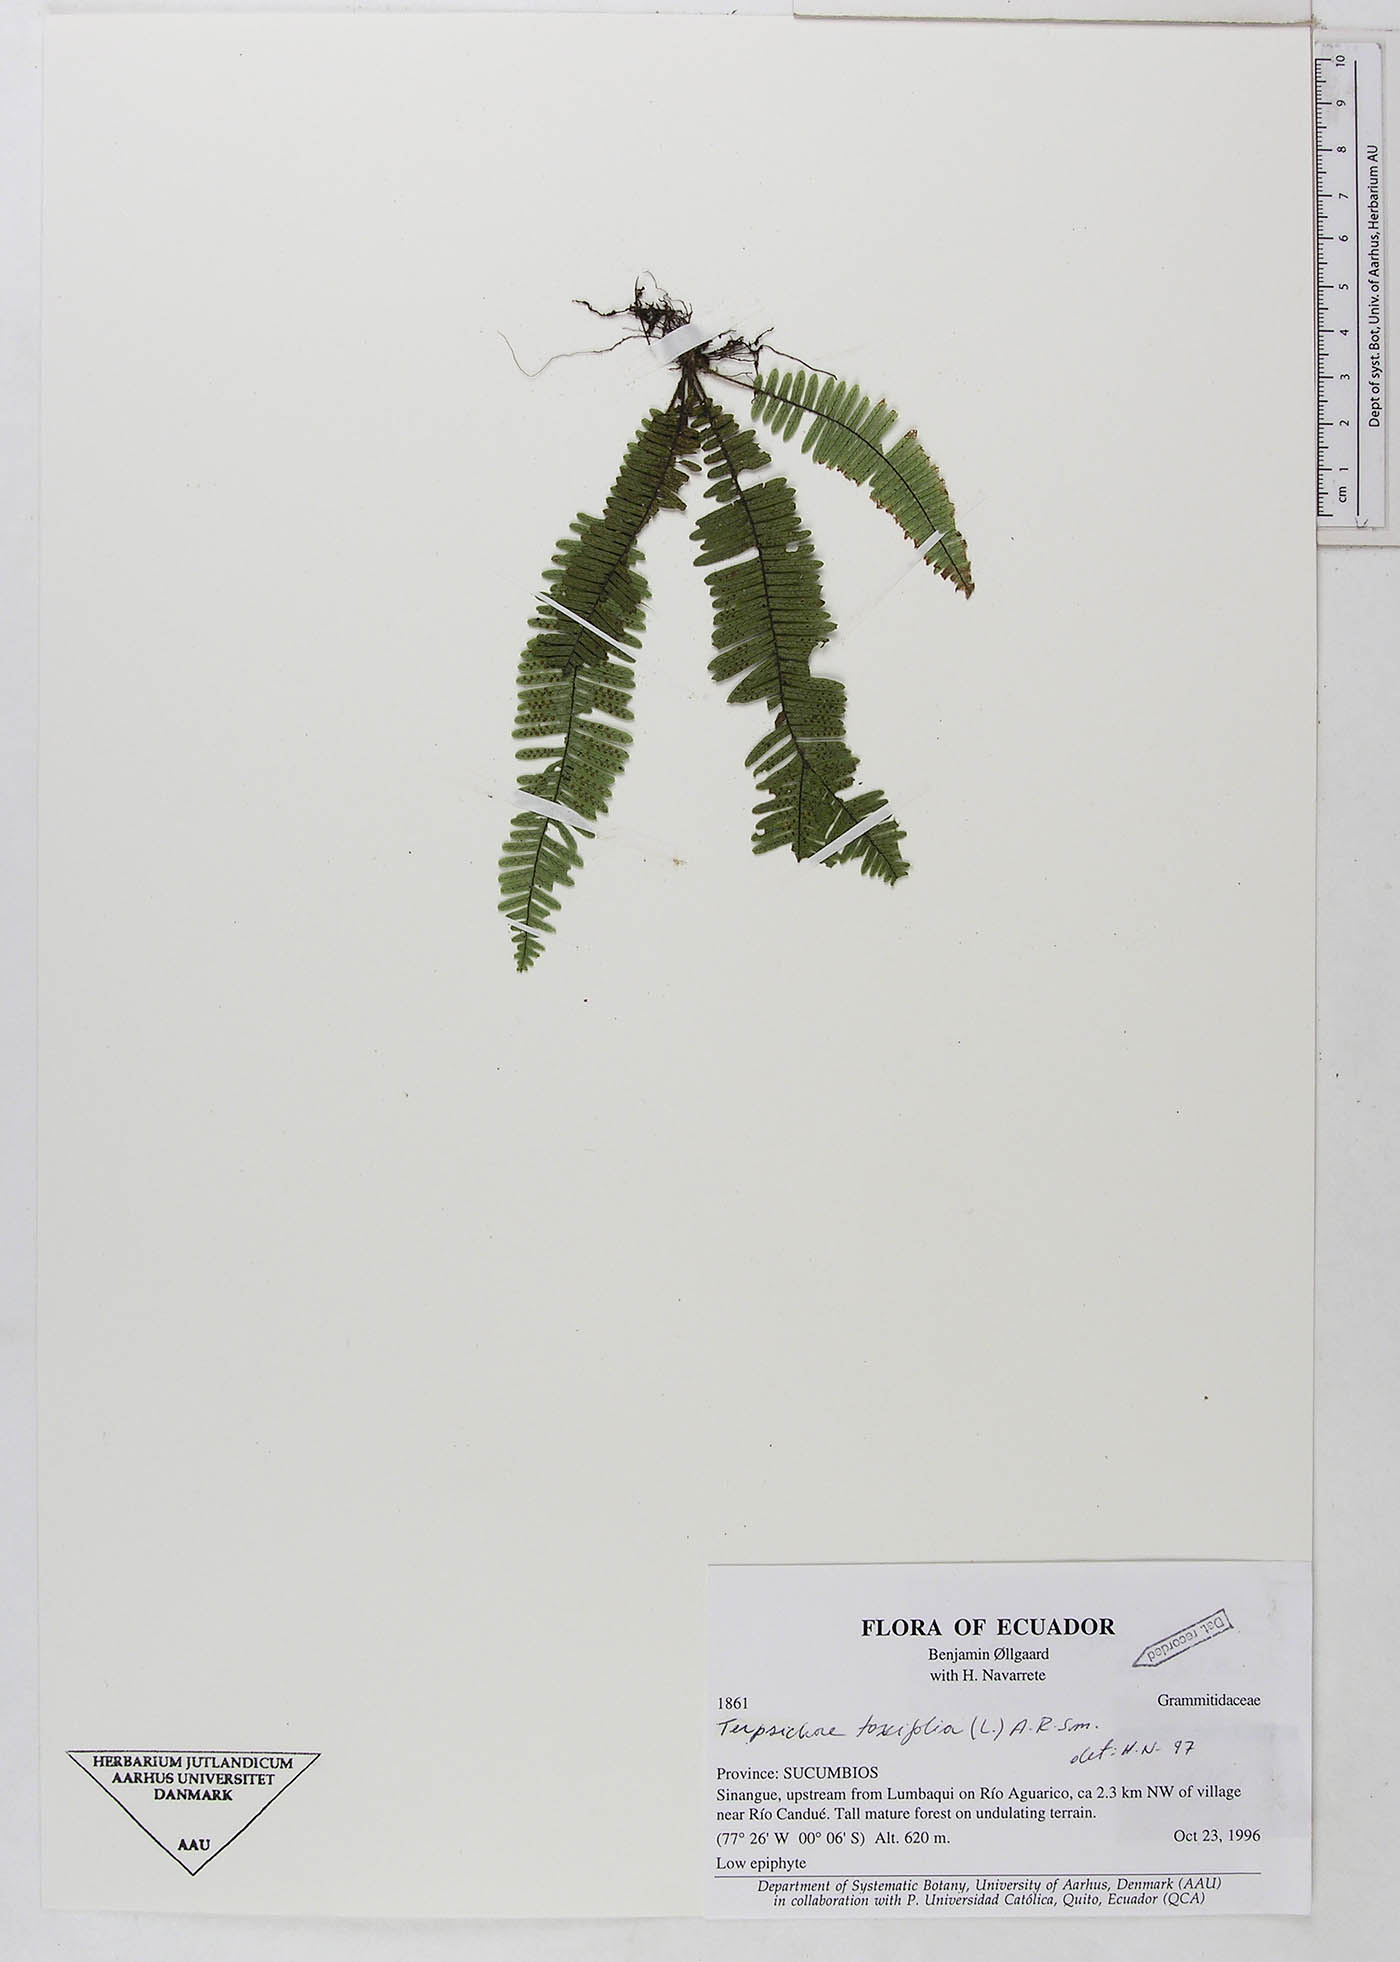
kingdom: Plantae
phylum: Tracheophyta
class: Polypodiopsida
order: Polypodiales
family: Polypodiaceae
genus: Mycopteris
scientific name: Mycopteris taxifolia
